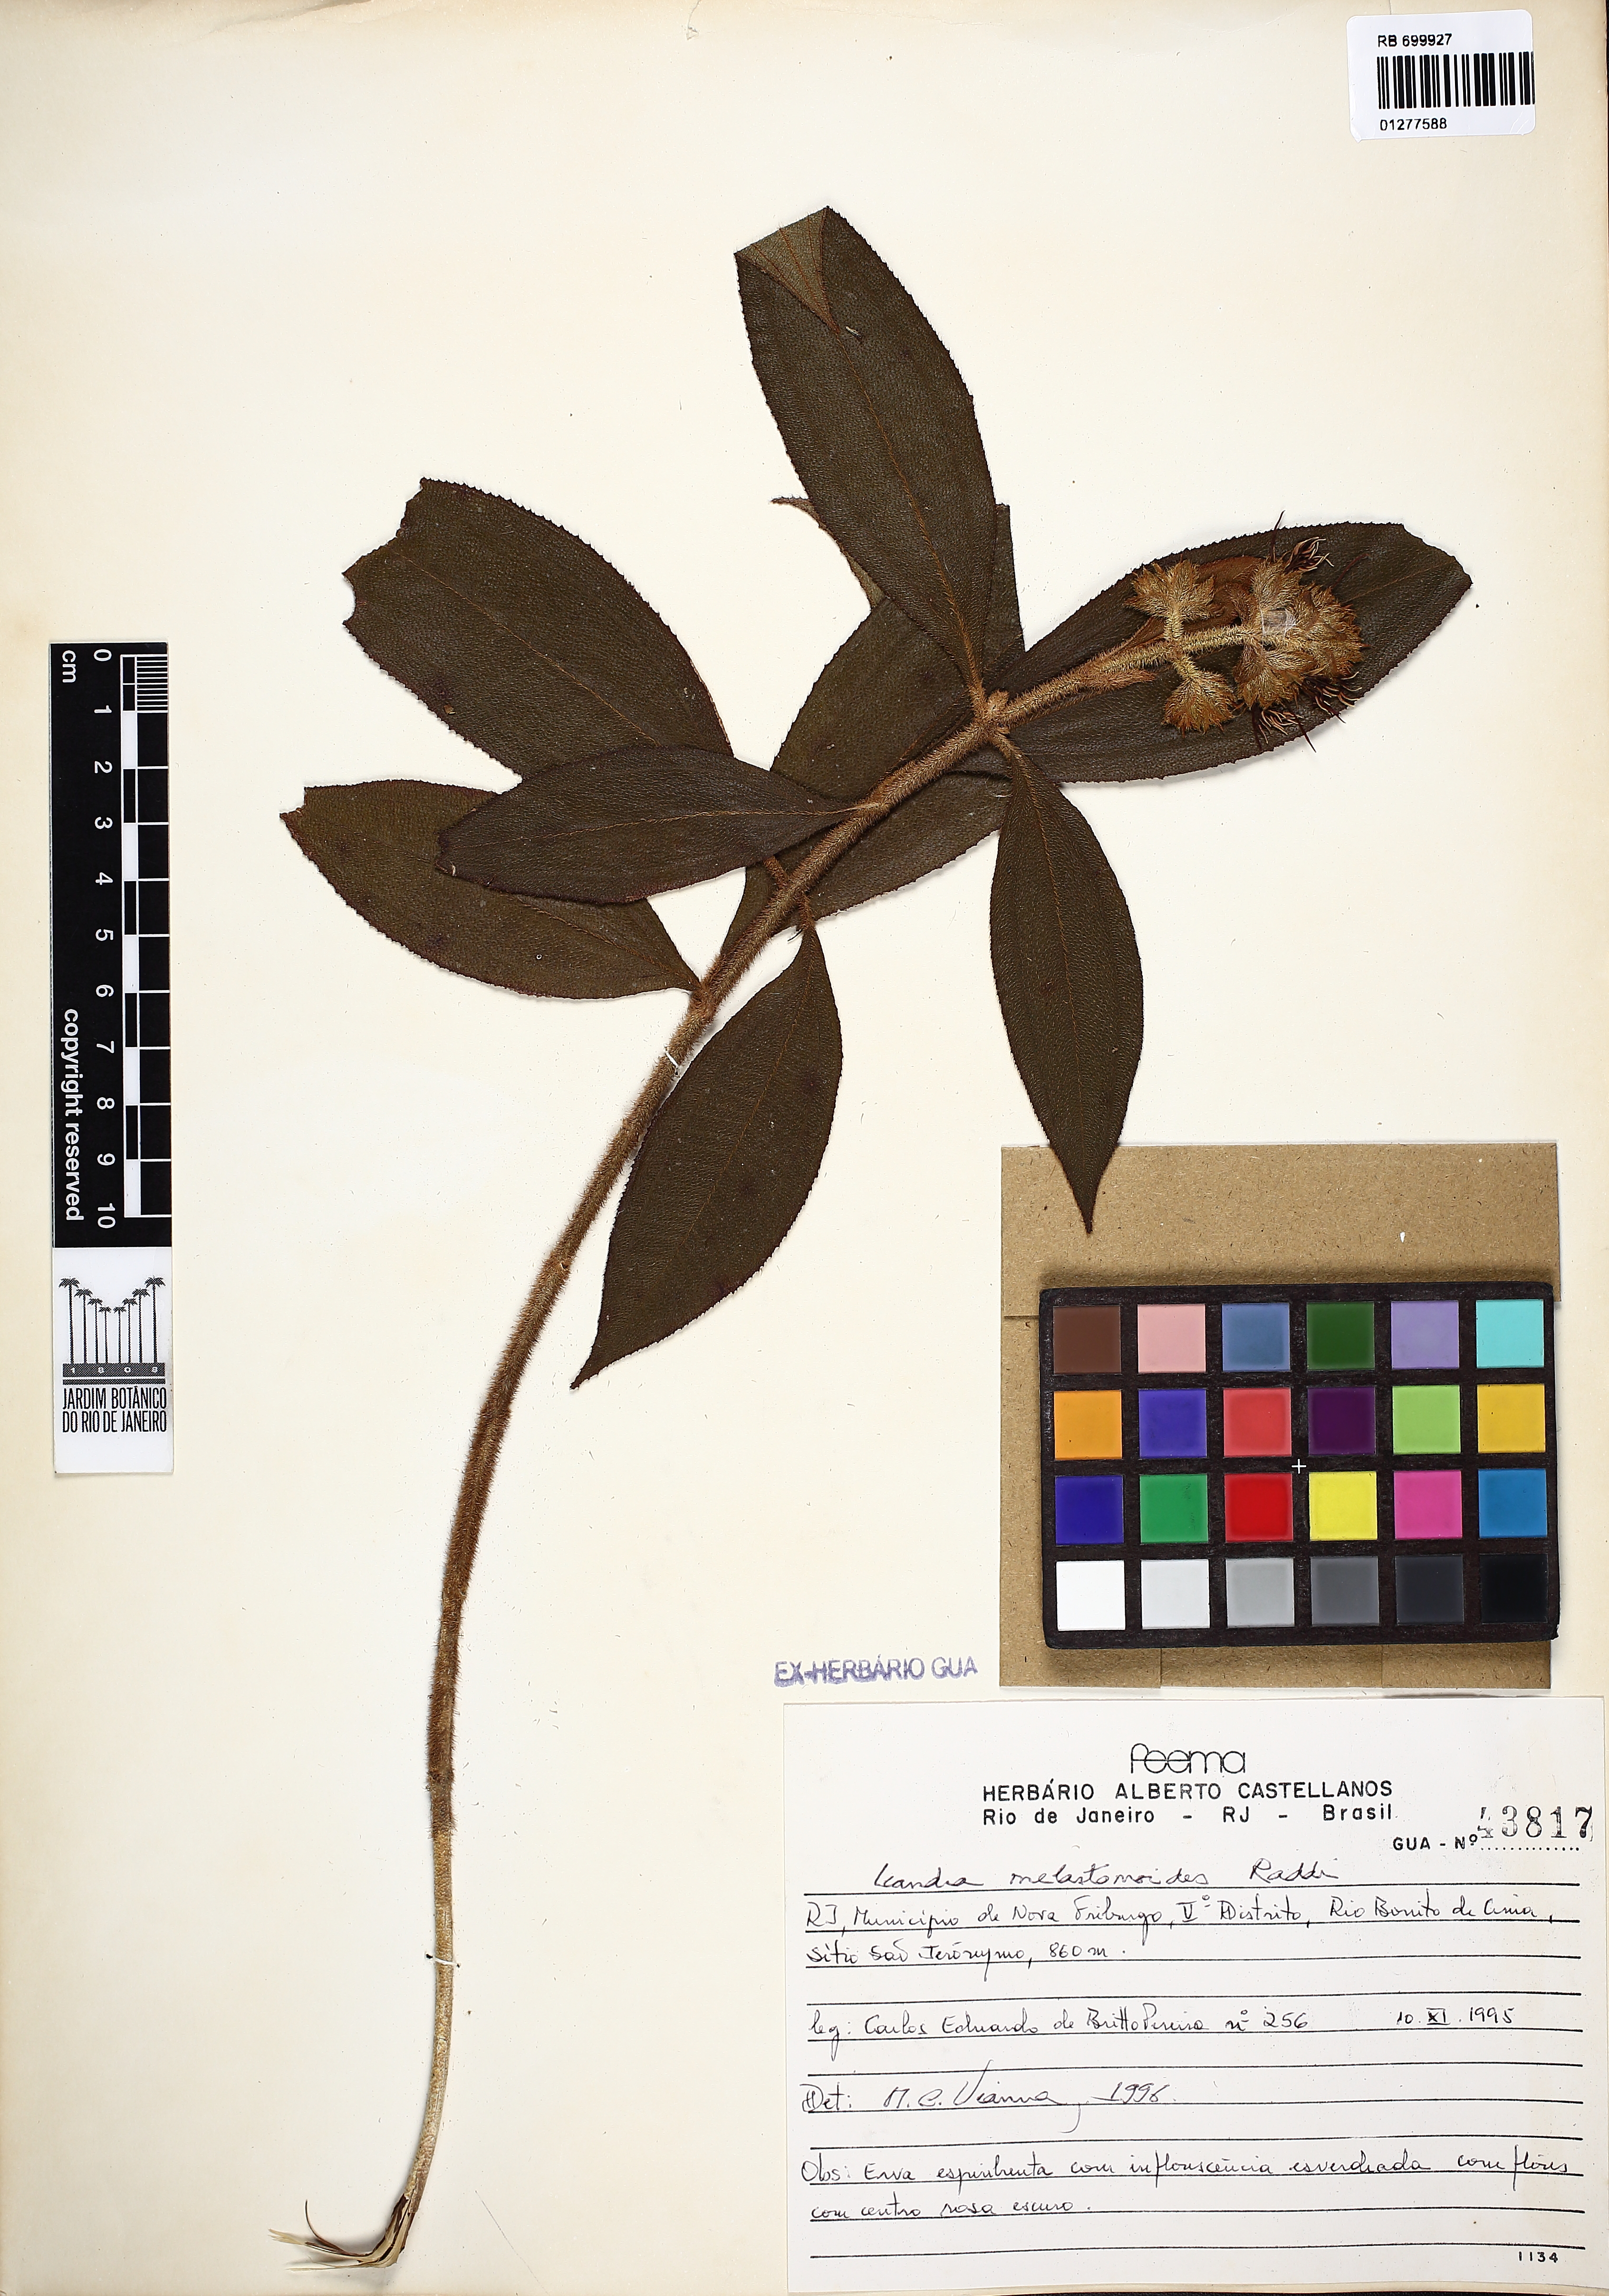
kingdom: Plantae
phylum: Tracheophyta
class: Magnoliopsida
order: Myrtales
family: Melastomataceae
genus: Miconia
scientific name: Miconia melastomoides
